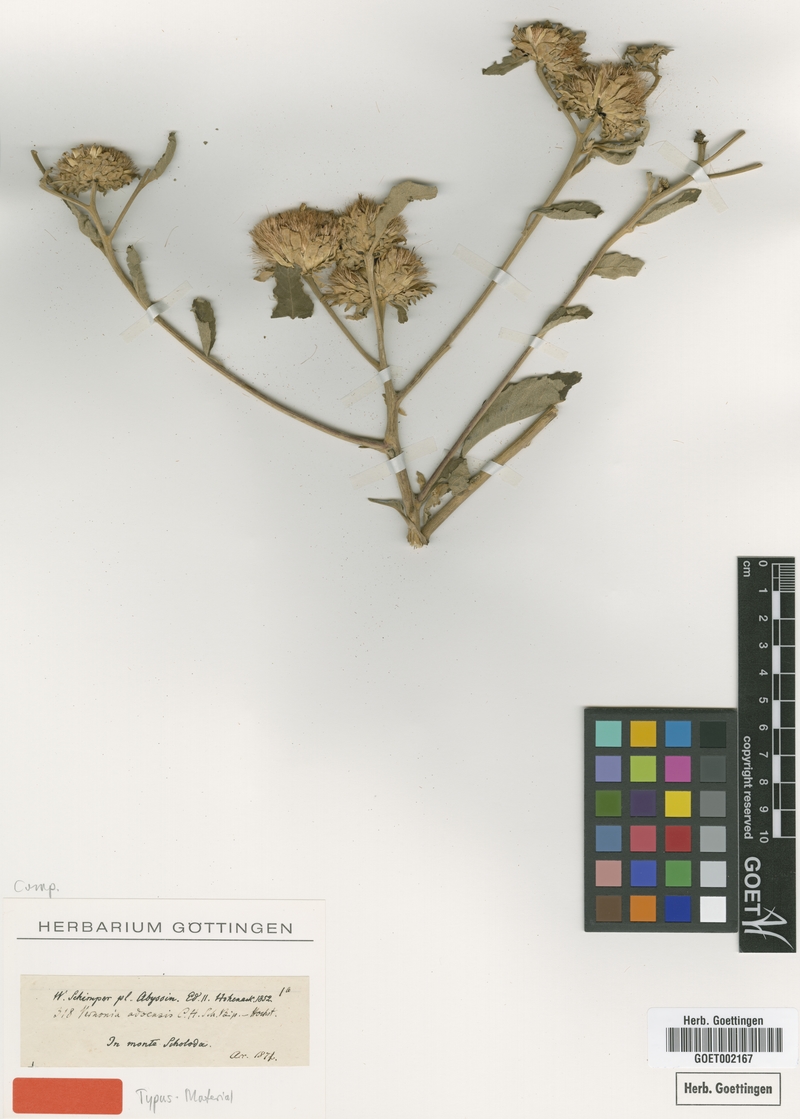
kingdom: Plantae
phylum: Tracheophyta
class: Magnoliopsida
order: Asterales
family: Asteraceae
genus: Baccharoides
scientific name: Baccharoides adoensis
